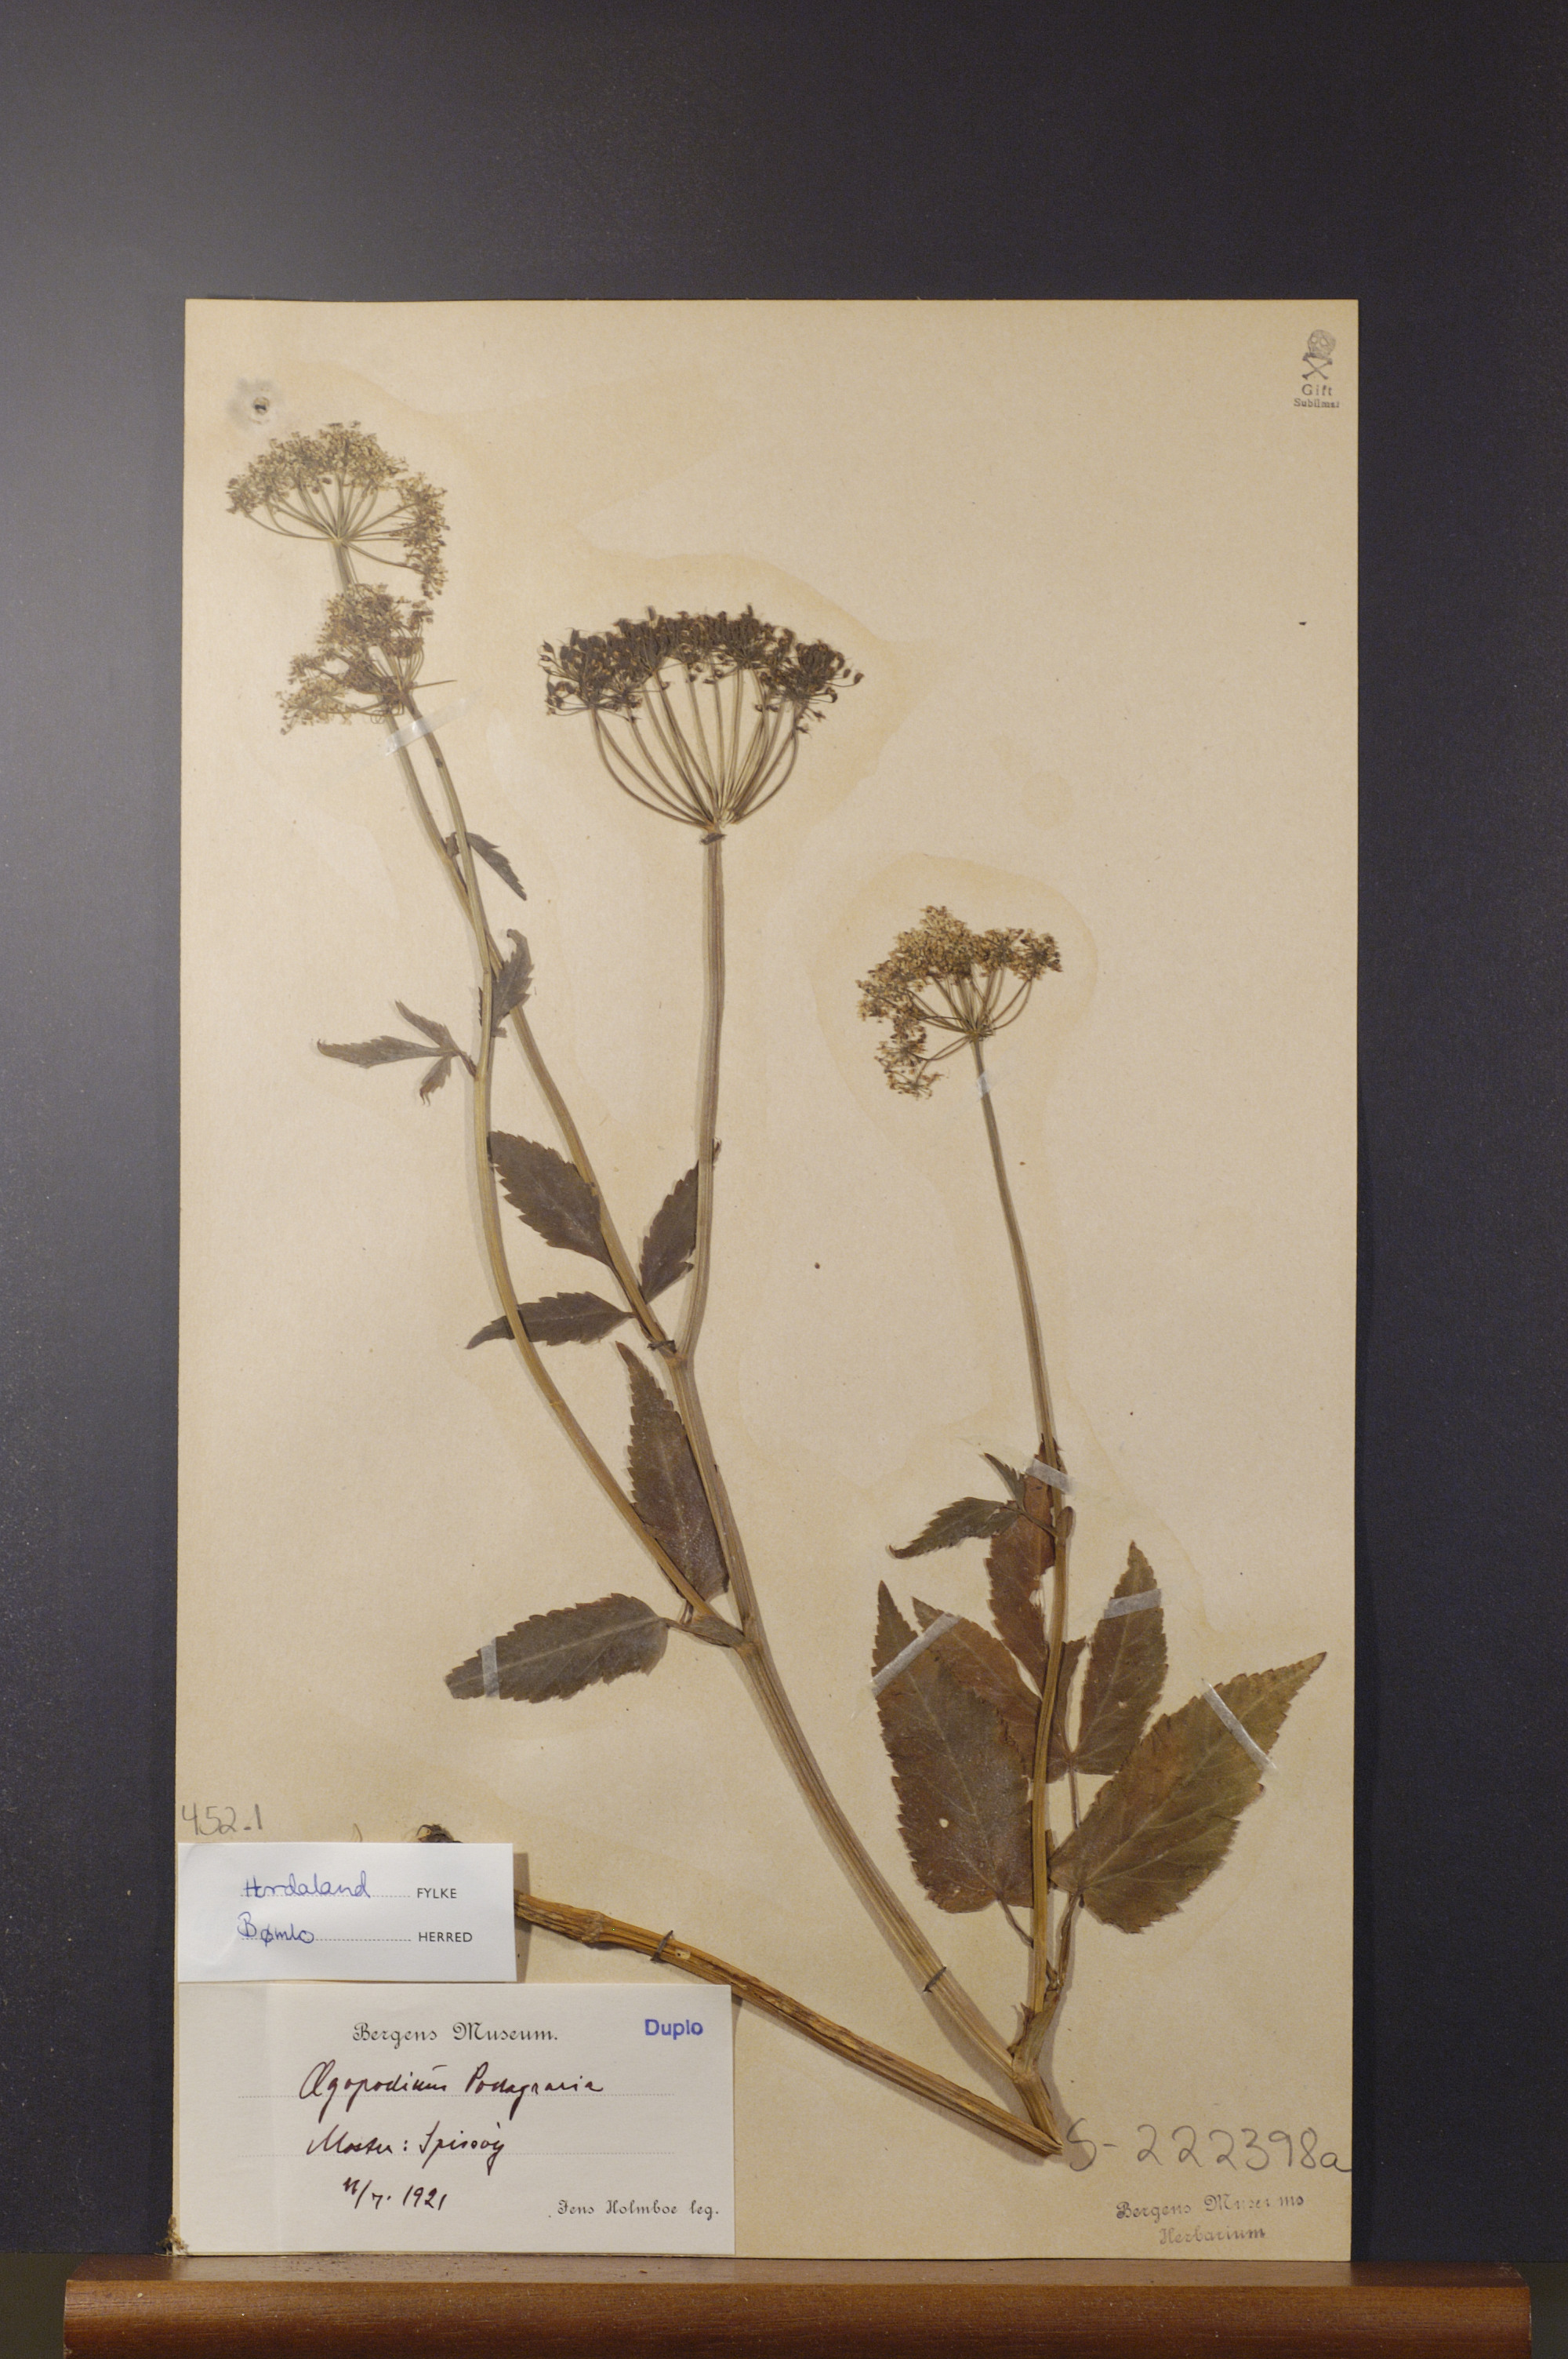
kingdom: Plantae
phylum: Tracheophyta
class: Magnoliopsida
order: Apiales
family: Apiaceae
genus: Aegopodium
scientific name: Aegopodium podagraria
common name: Ground-elder
